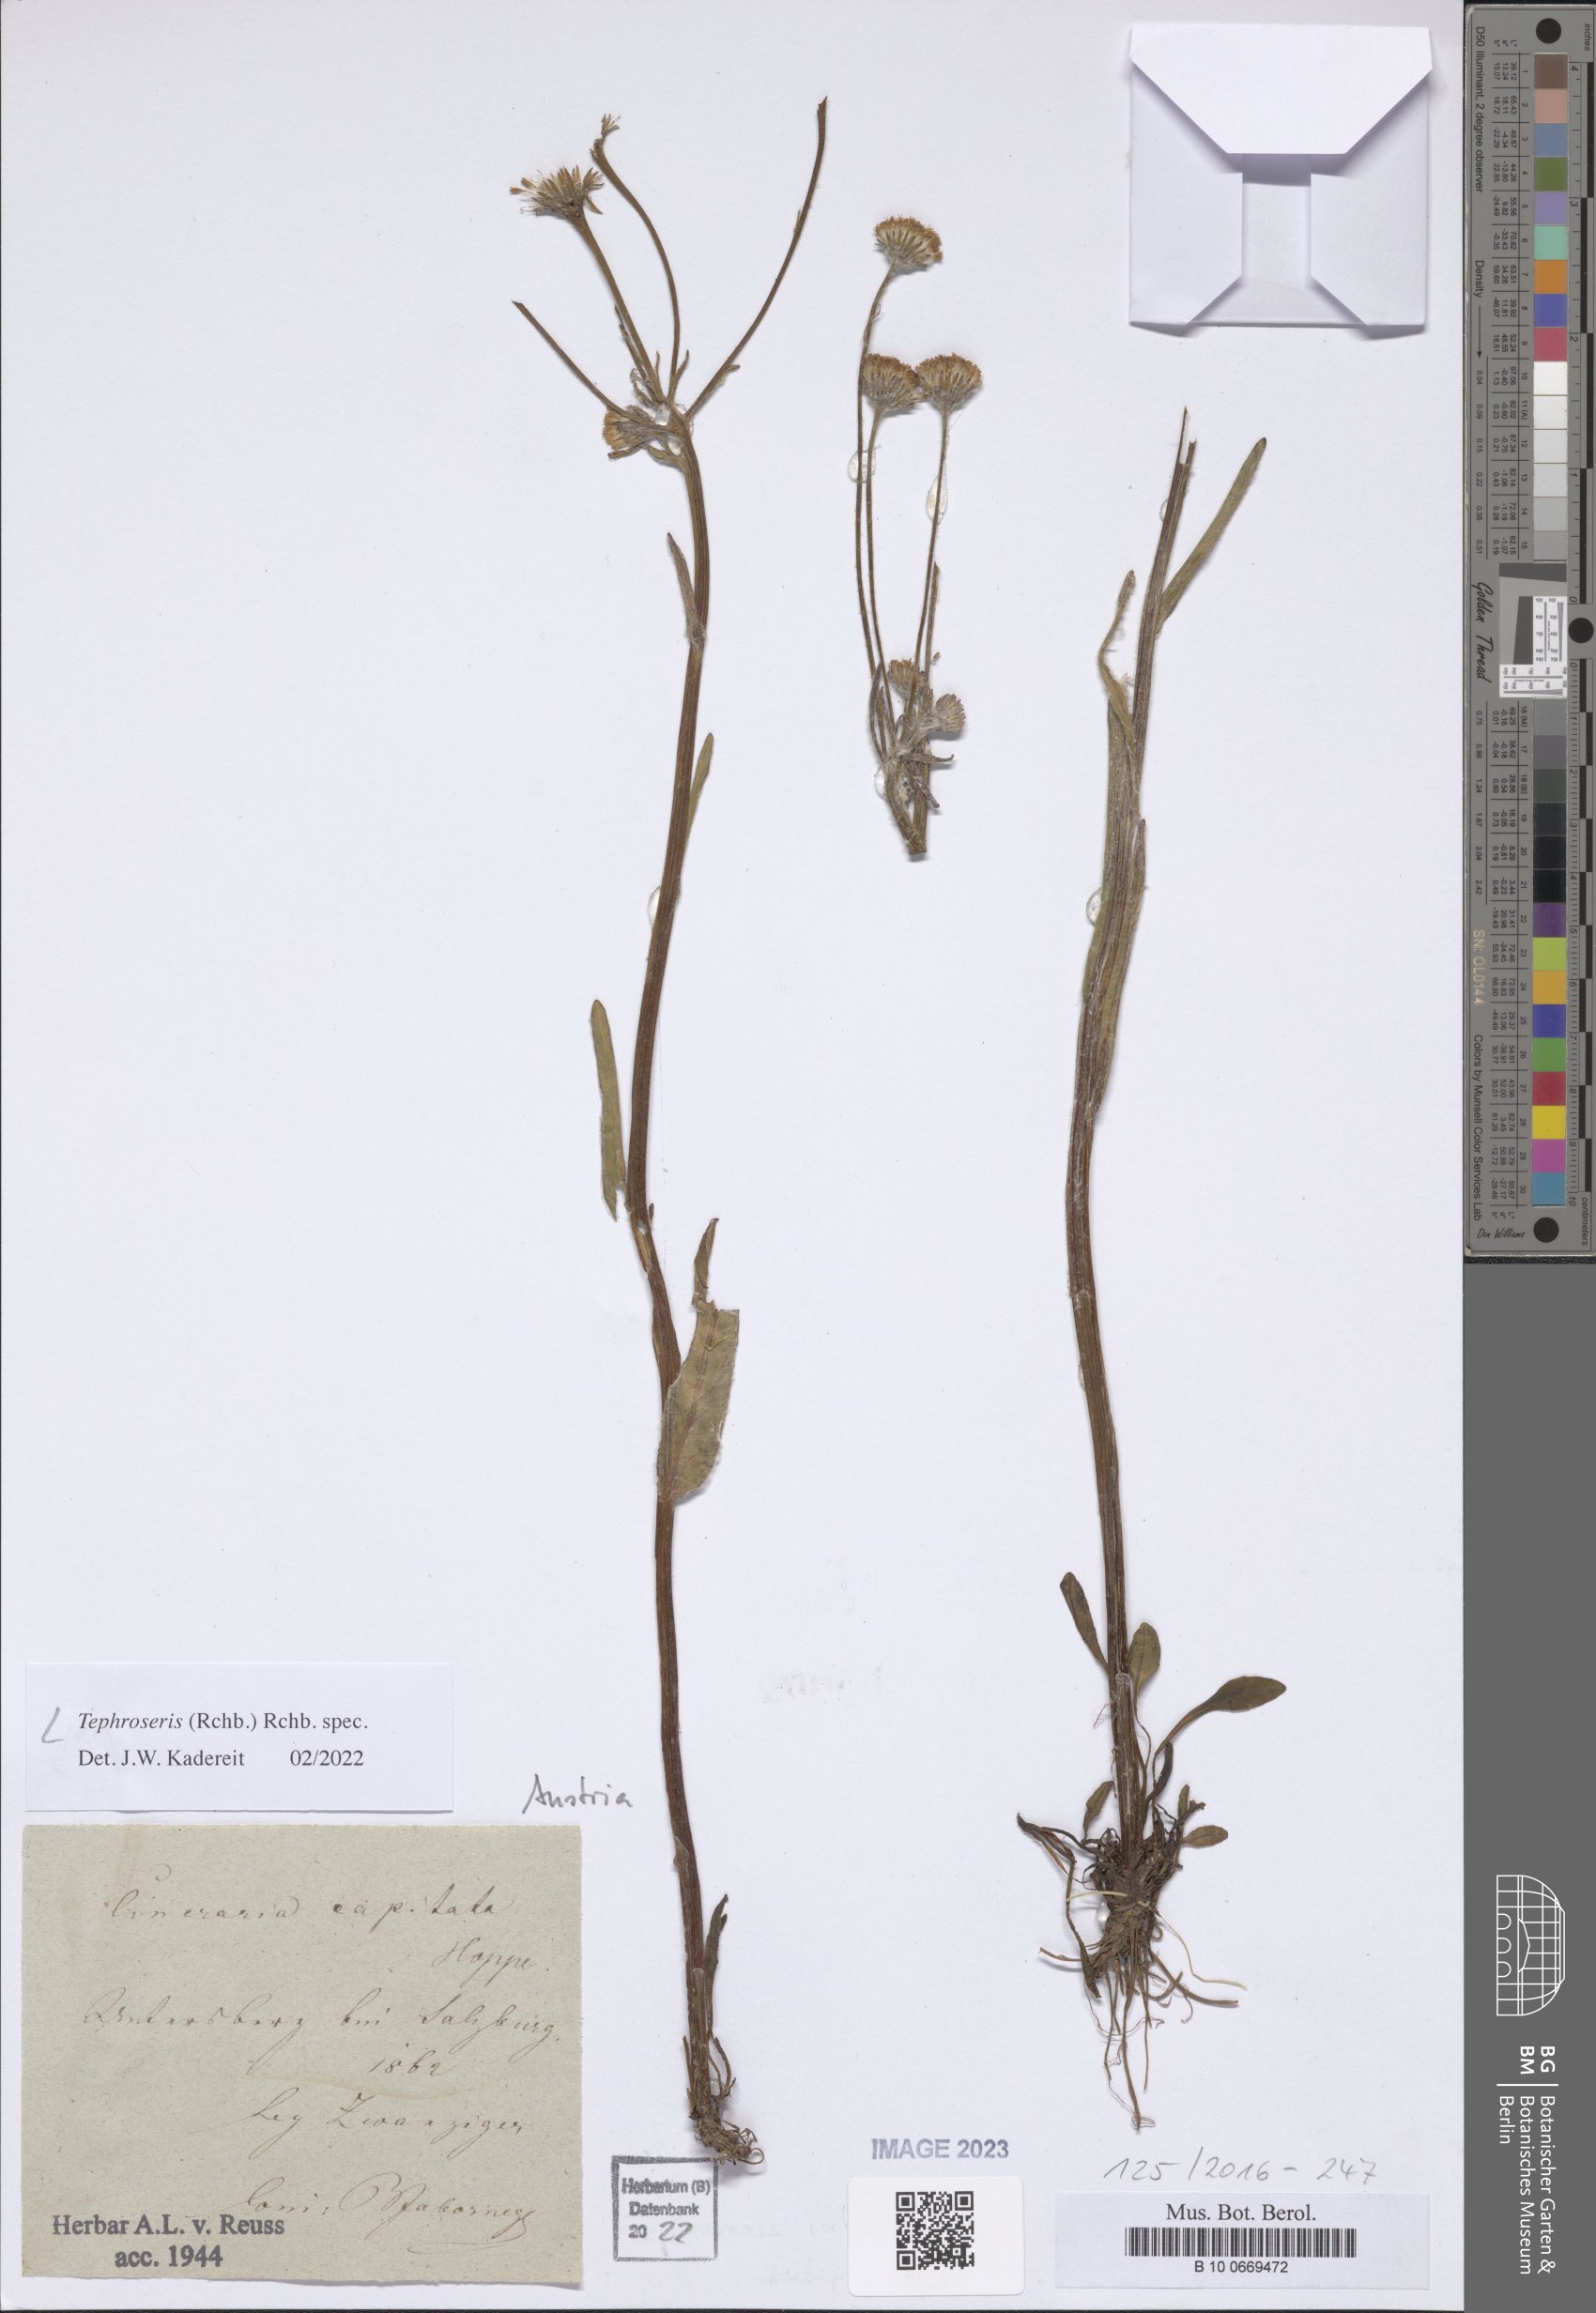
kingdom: Plantae
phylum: Tracheophyta
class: Magnoliopsida
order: Asterales
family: Asteraceae
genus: Tephroseris
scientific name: Tephroseris
